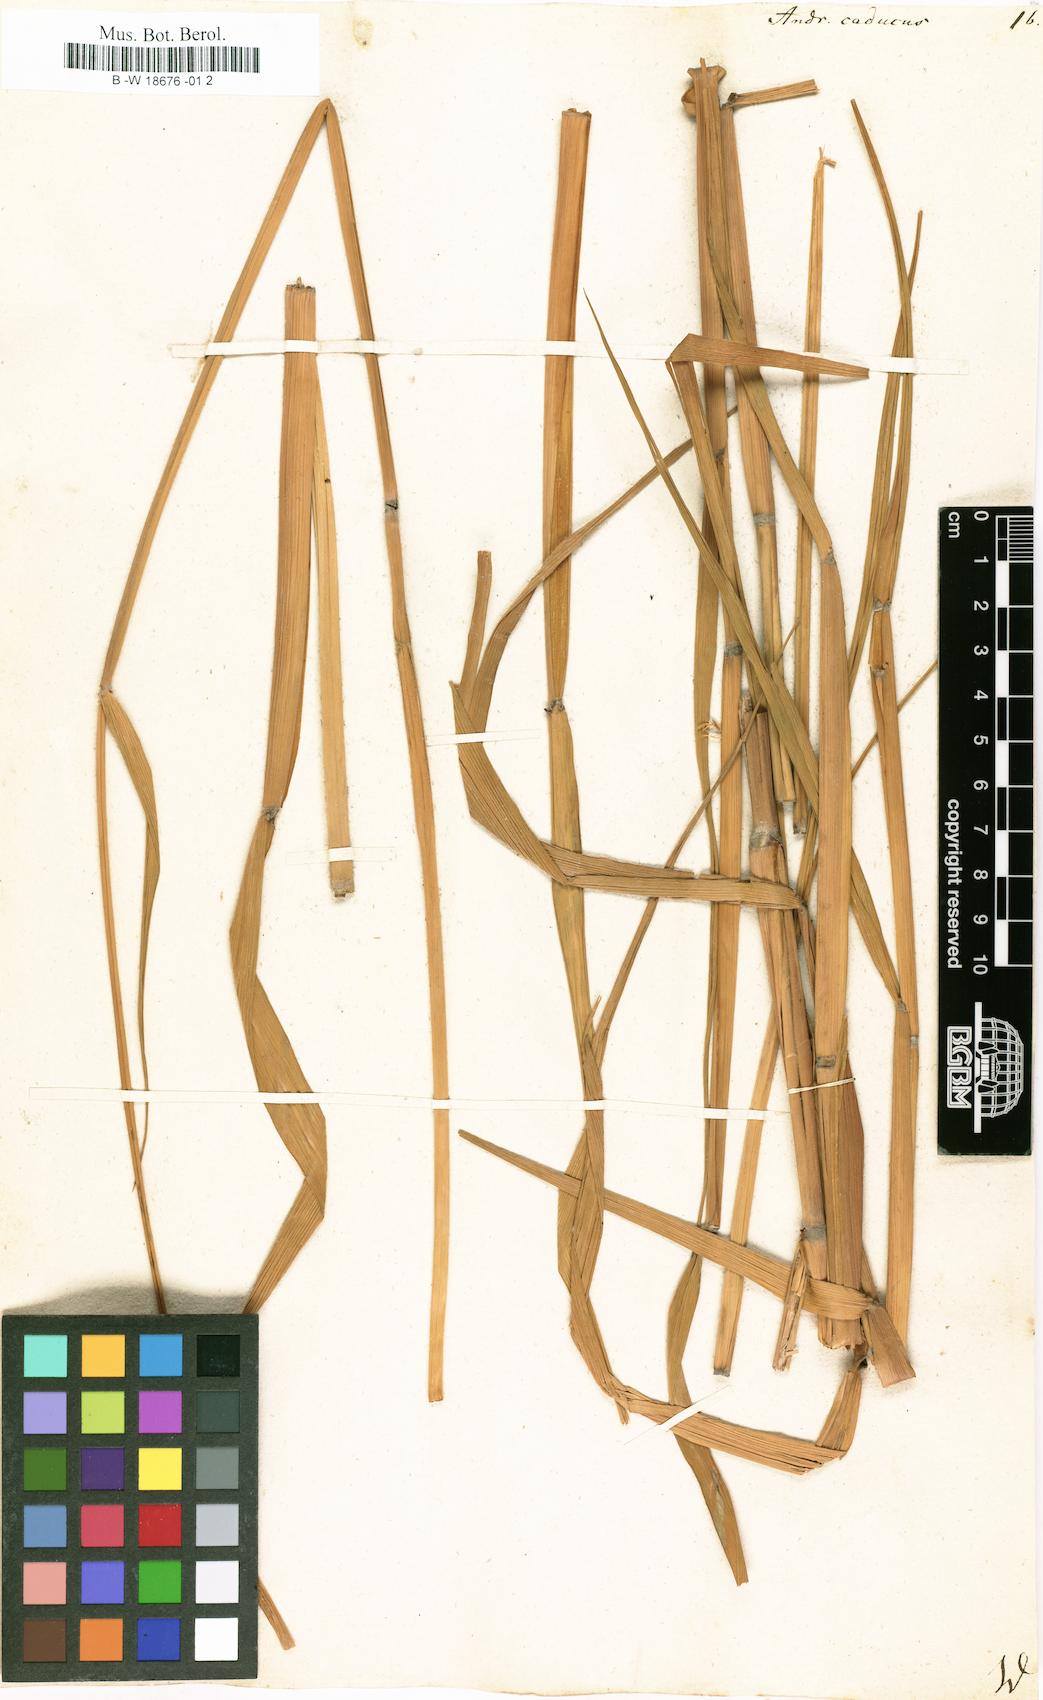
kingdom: Plantae
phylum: Tracheophyta
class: Liliopsida
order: Poales
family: Poaceae
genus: Andropogon
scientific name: Andropogon
